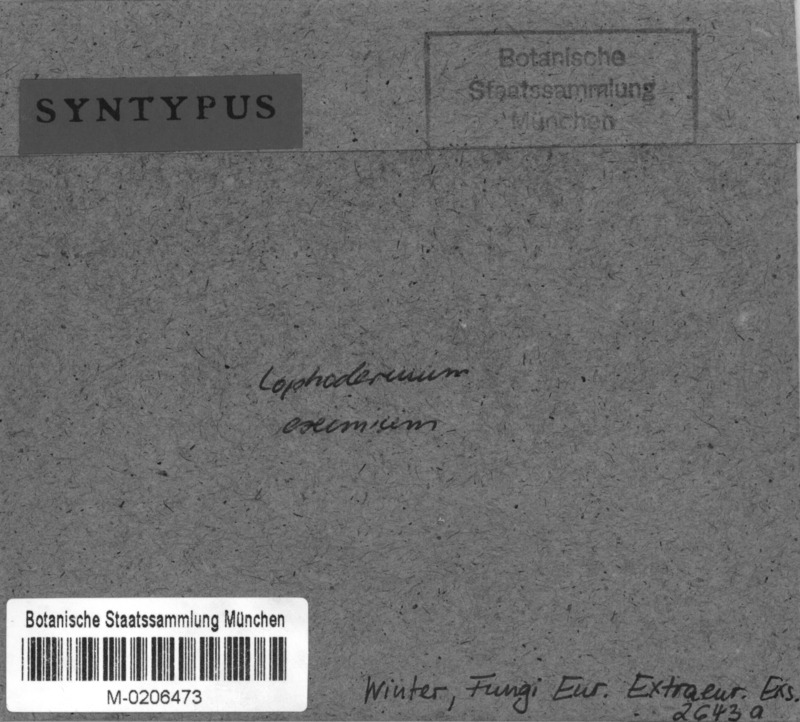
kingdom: Fungi
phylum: Ascomycota
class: Leotiomycetes
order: Rhytismatales
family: Rhytismataceae
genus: Lophodermium
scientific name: Lophodermium eximium
